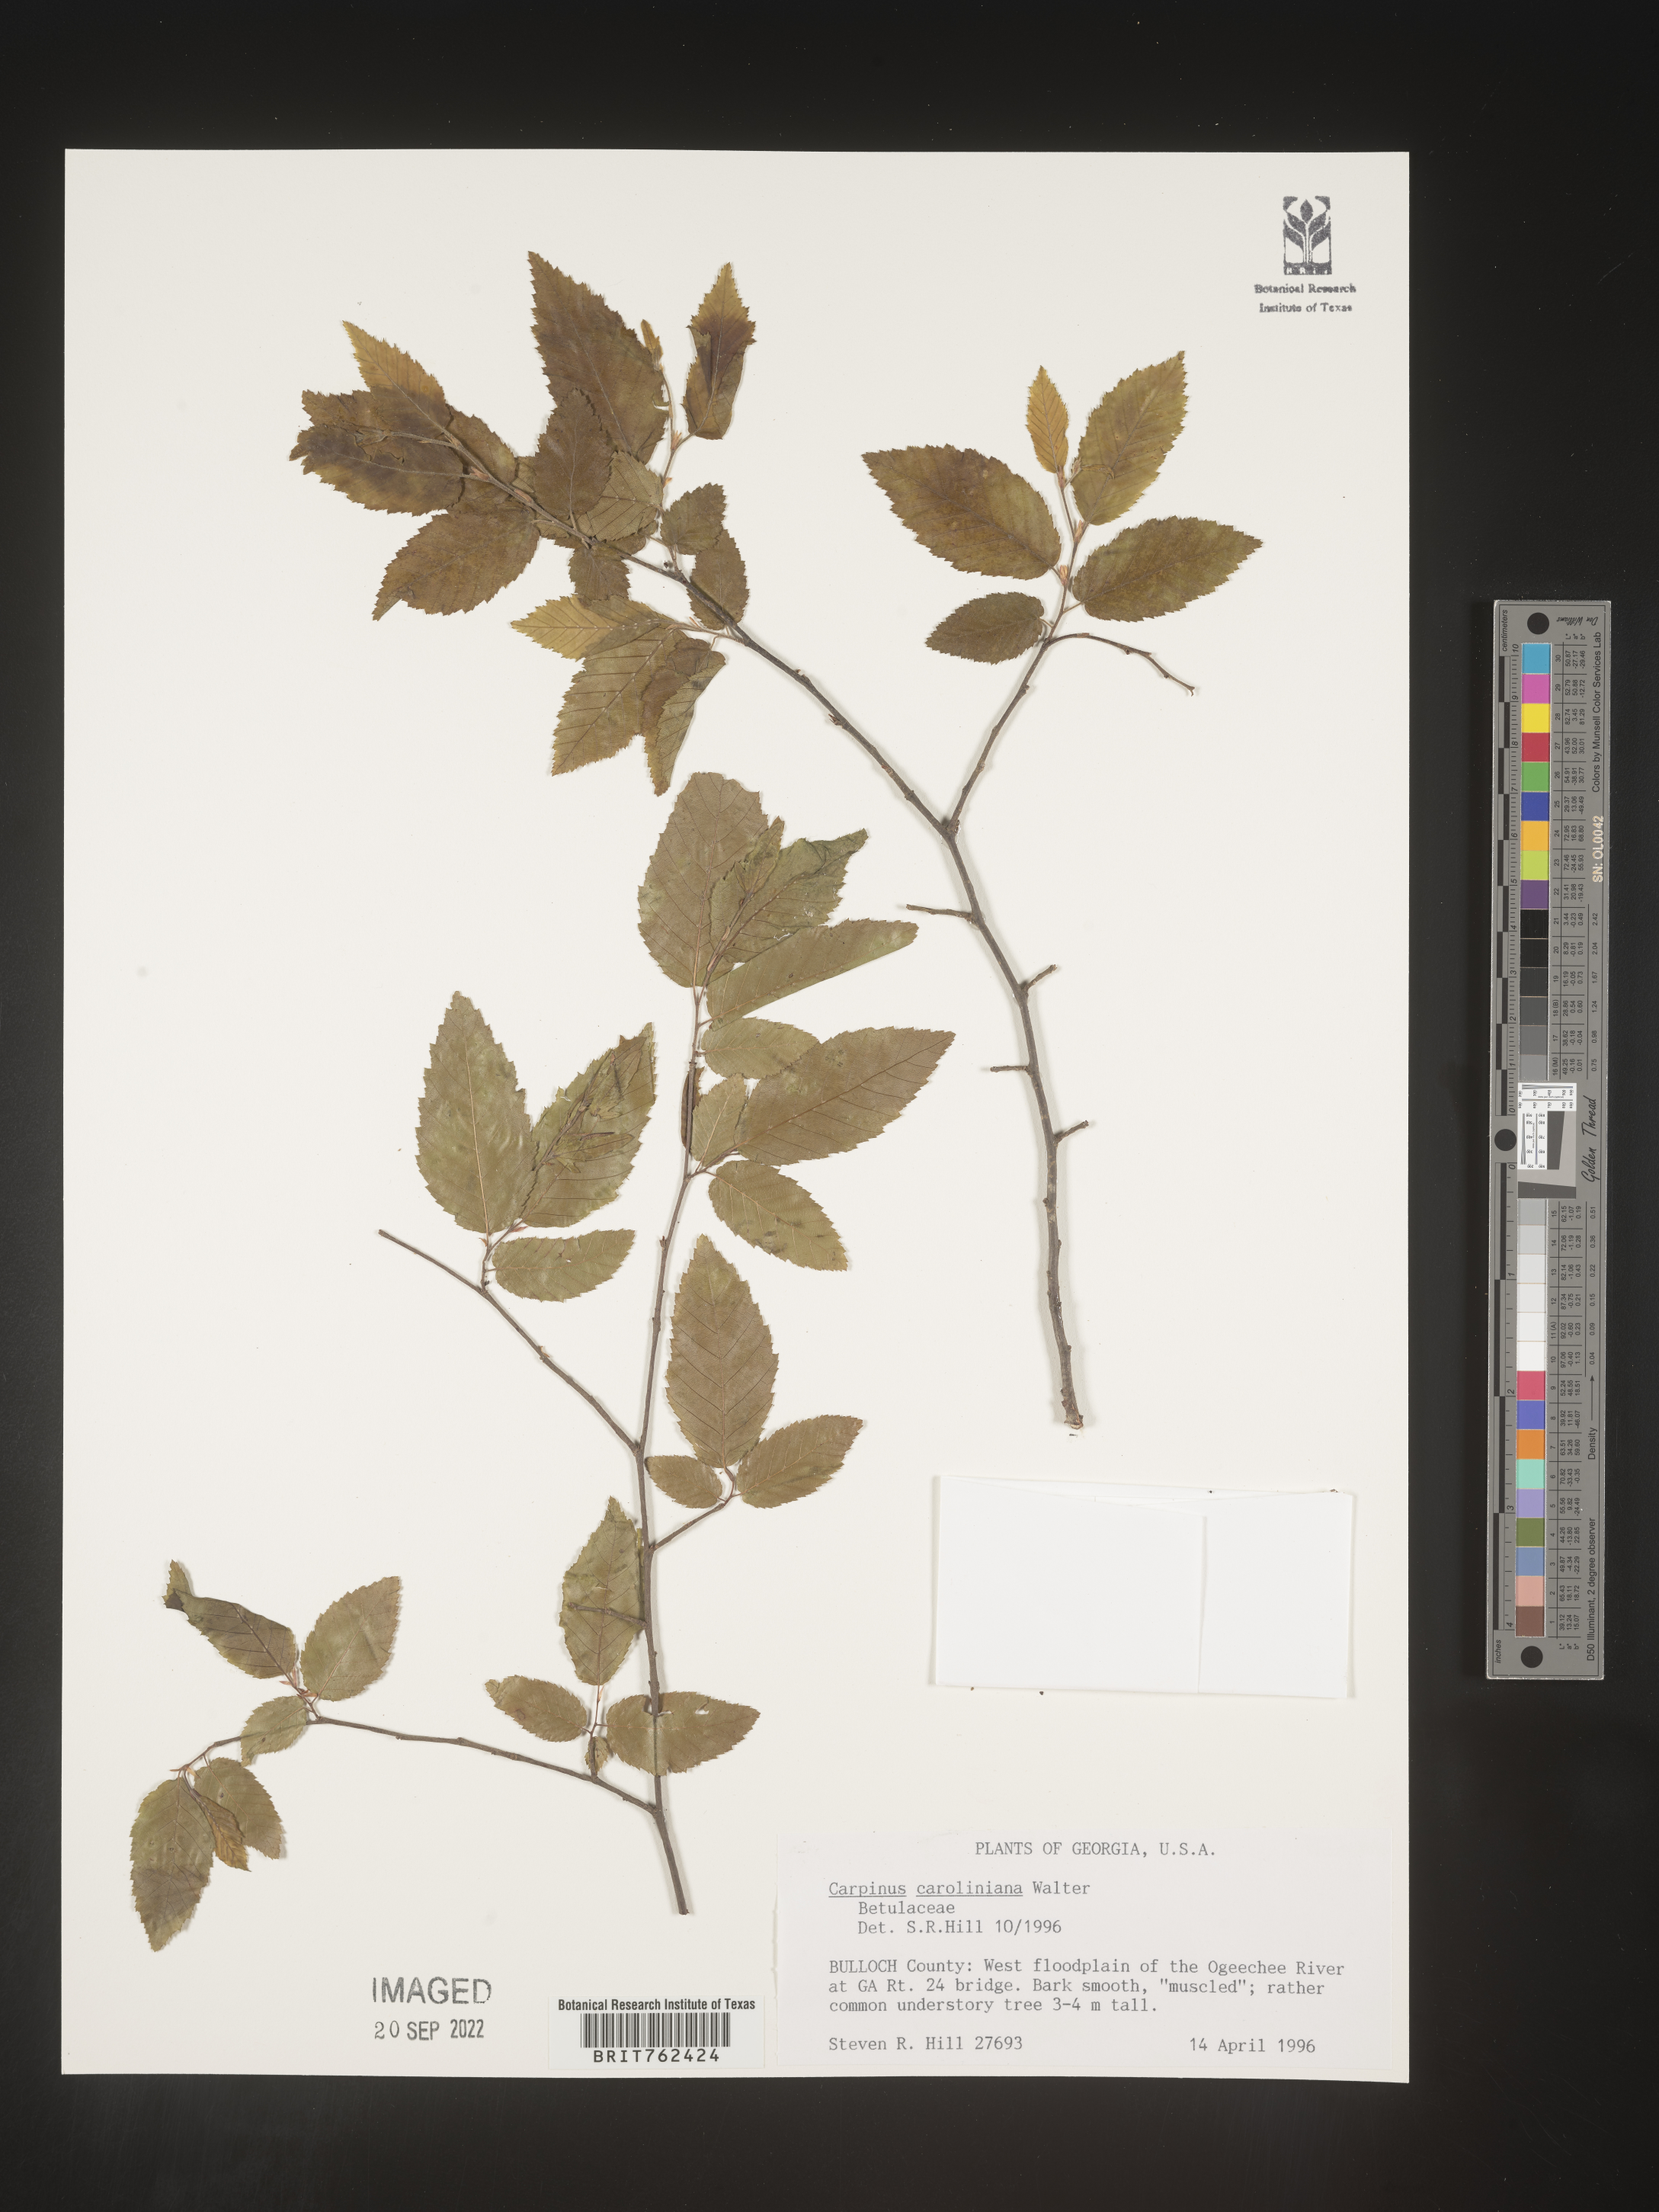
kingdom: Plantae
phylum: Tracheophyta
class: Magnoliopsida
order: Fagales
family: Betulaceae
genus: Carpinus
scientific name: Carpinus caroliniana
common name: American hornbeam
